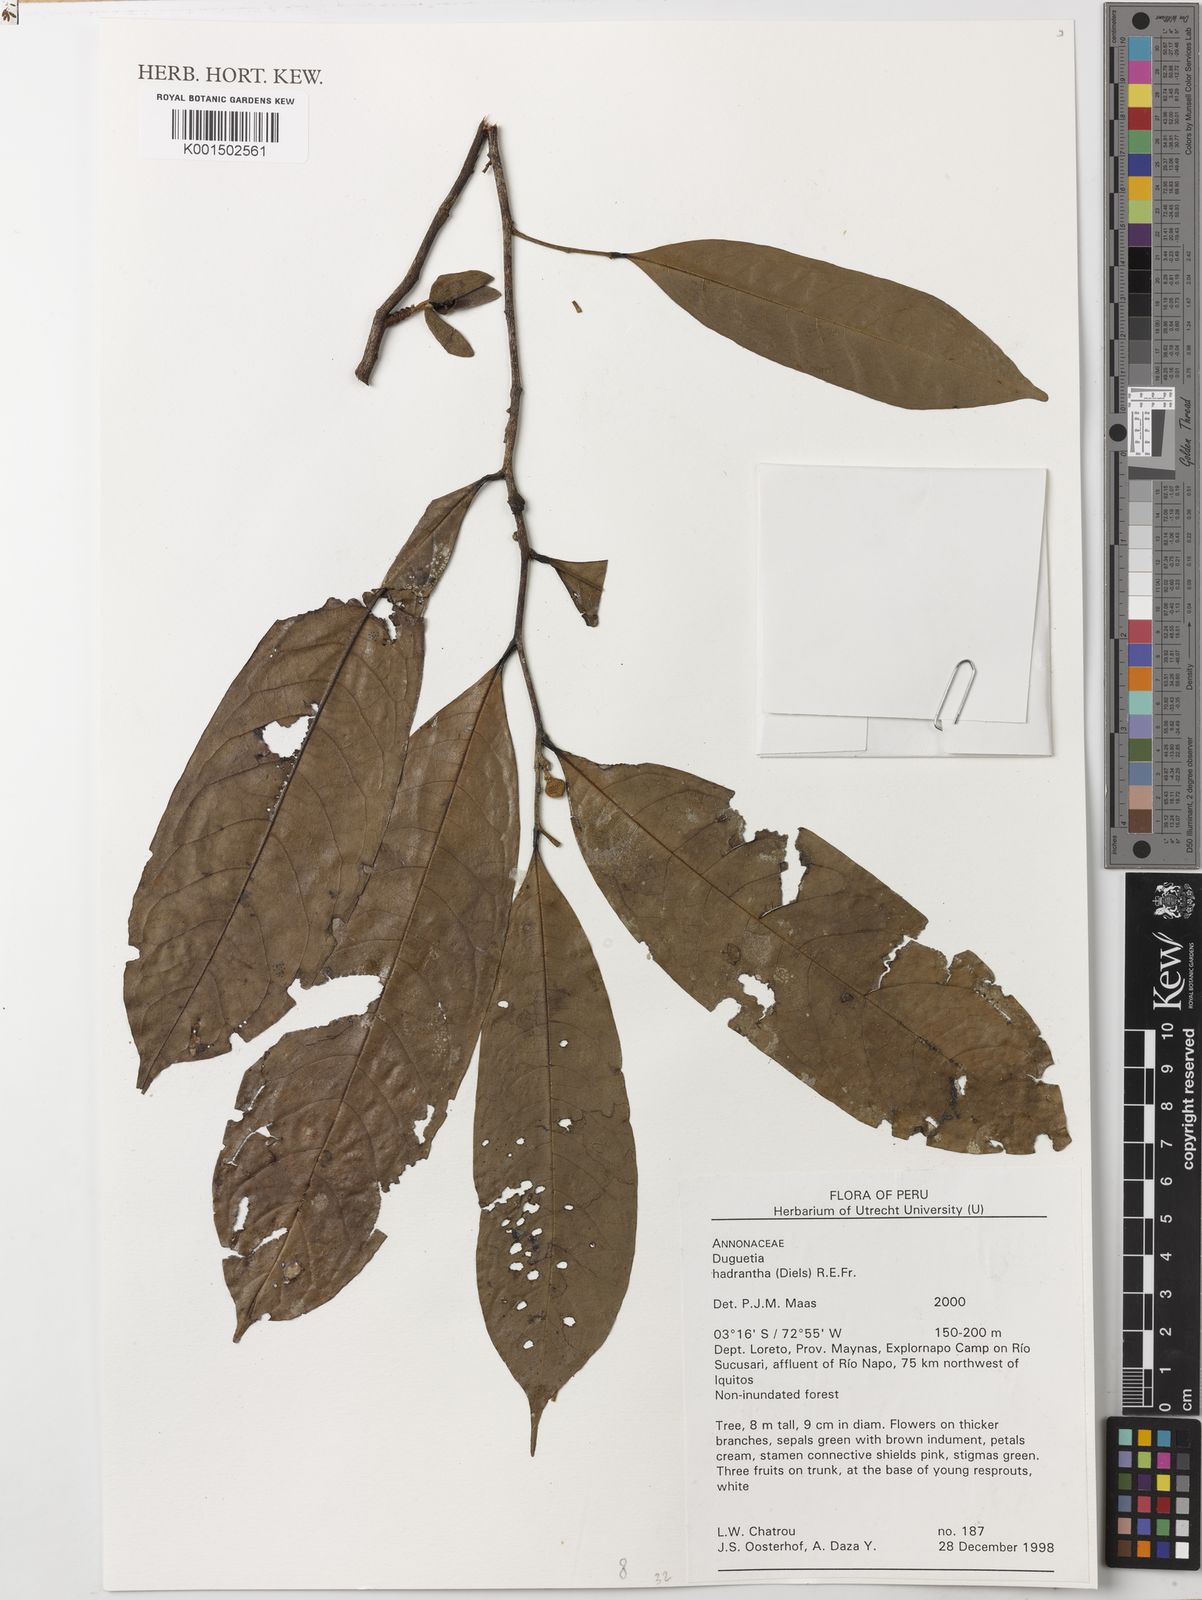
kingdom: Plantae
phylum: Tracheophyta
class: Magnoliopsida
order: Magnoliales
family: Annonaceae
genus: Duguetia
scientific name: Duguetia hadrantha
